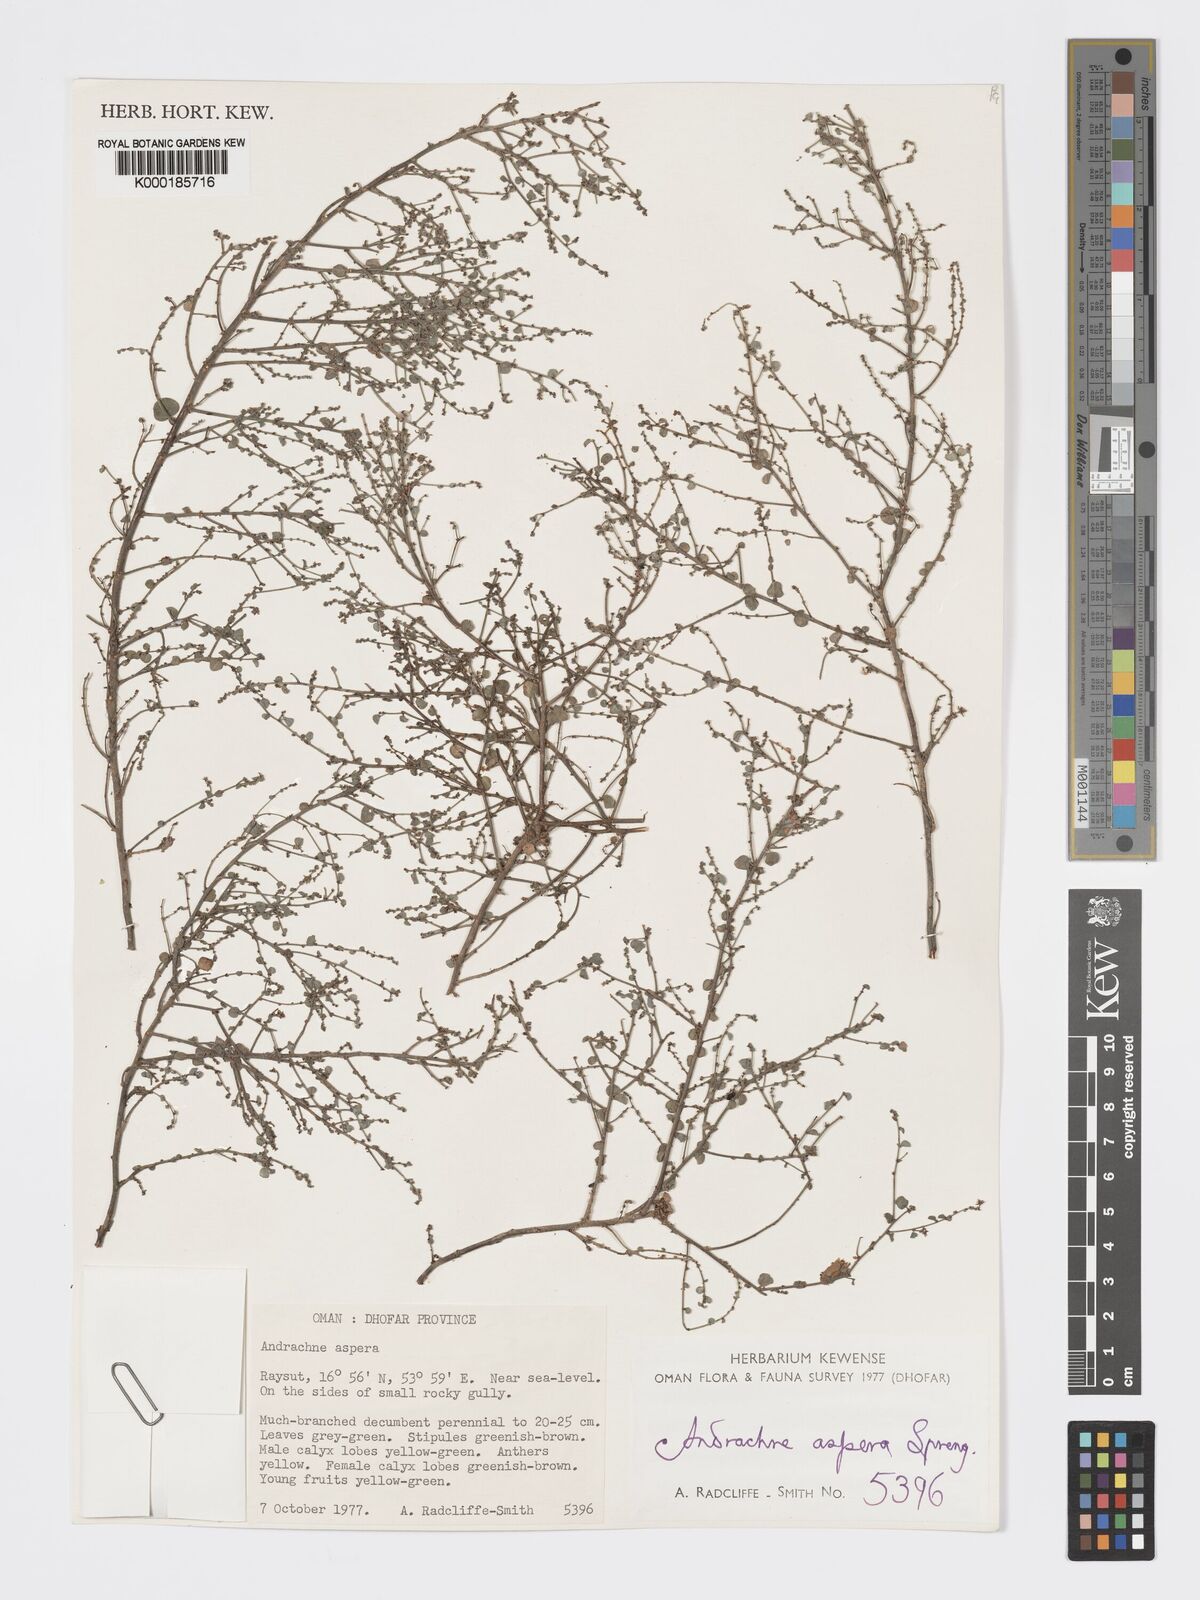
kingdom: Plantae
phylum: Tracheophyta
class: Magnoliopsida
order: Malpighiales
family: Phyllanthaceae
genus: Andrachne
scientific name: Andrachne aspera
